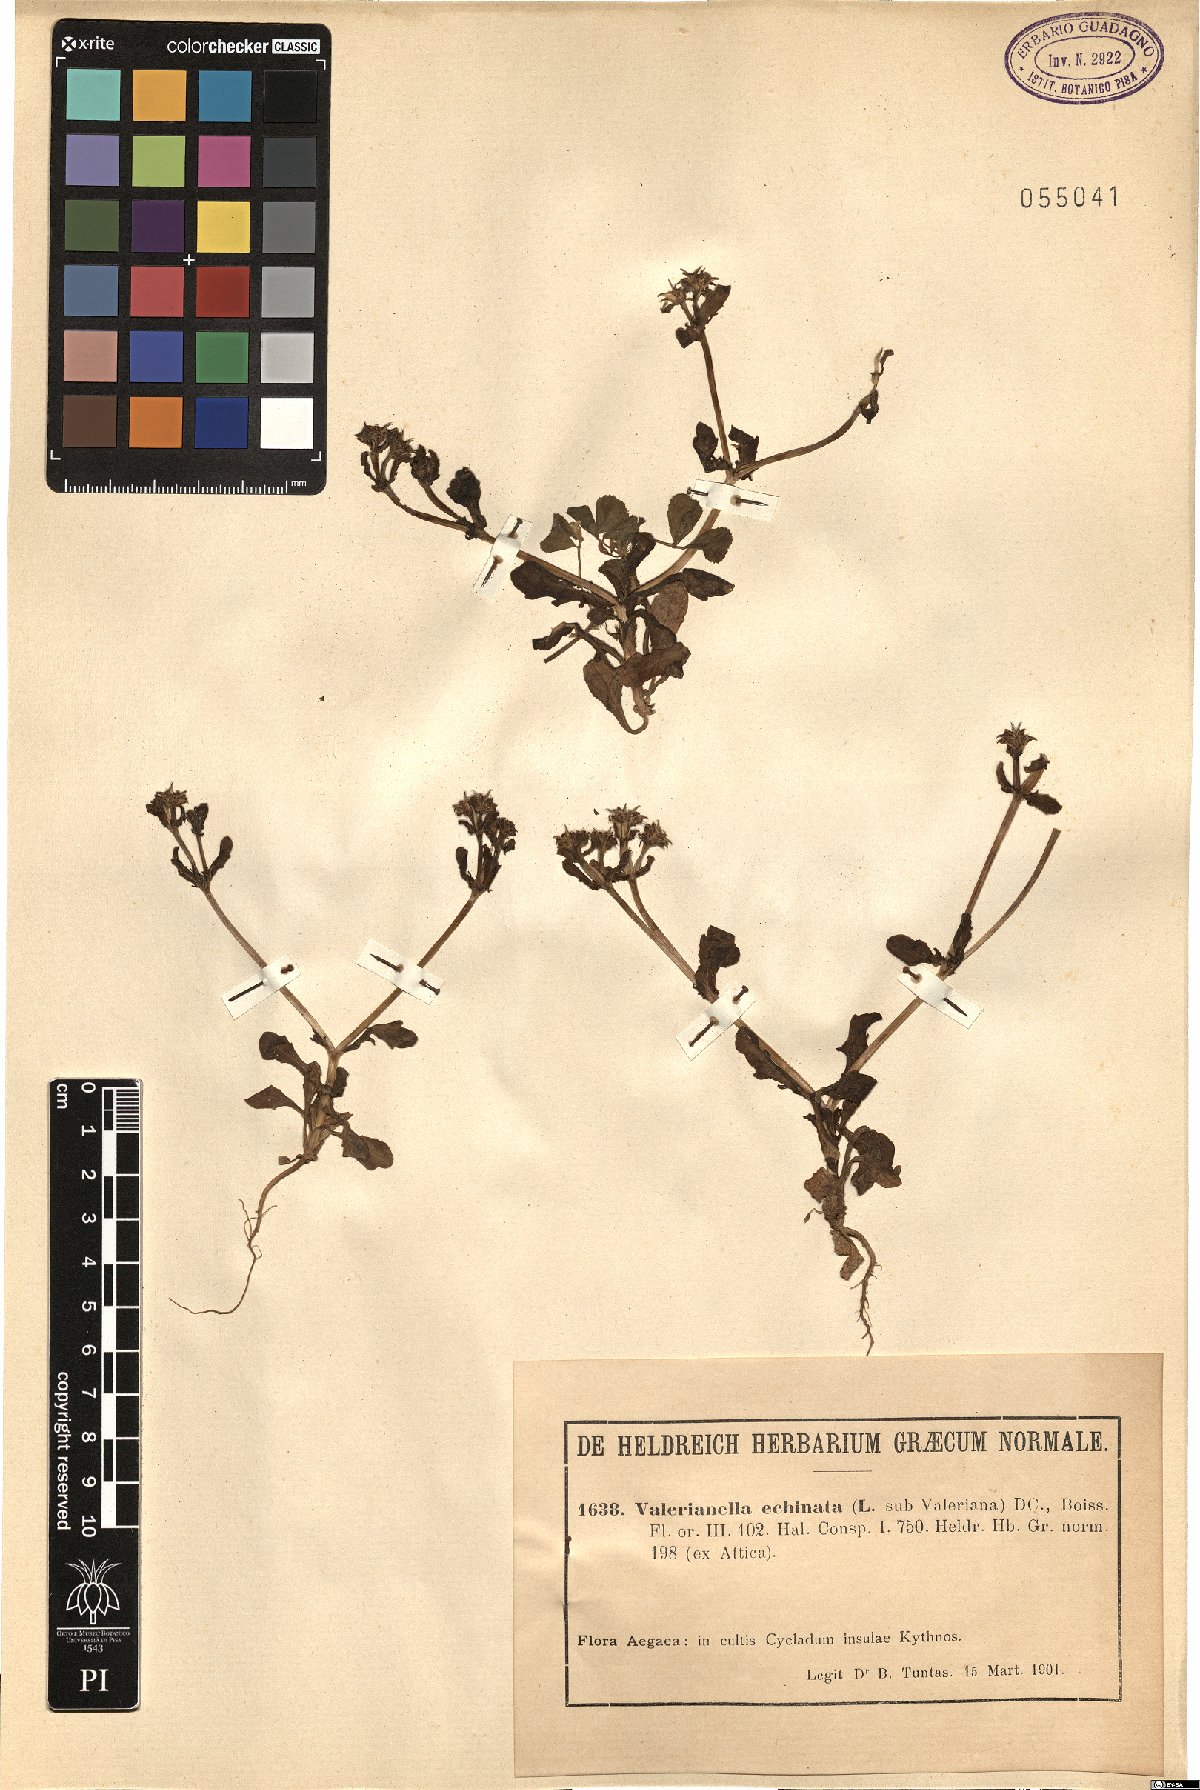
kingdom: Plantae
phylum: Tracheophyta
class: Magnoliopsida
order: Dipsacales
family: Caprifoliaceae
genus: Valerianella
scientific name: Valerianella echinata
